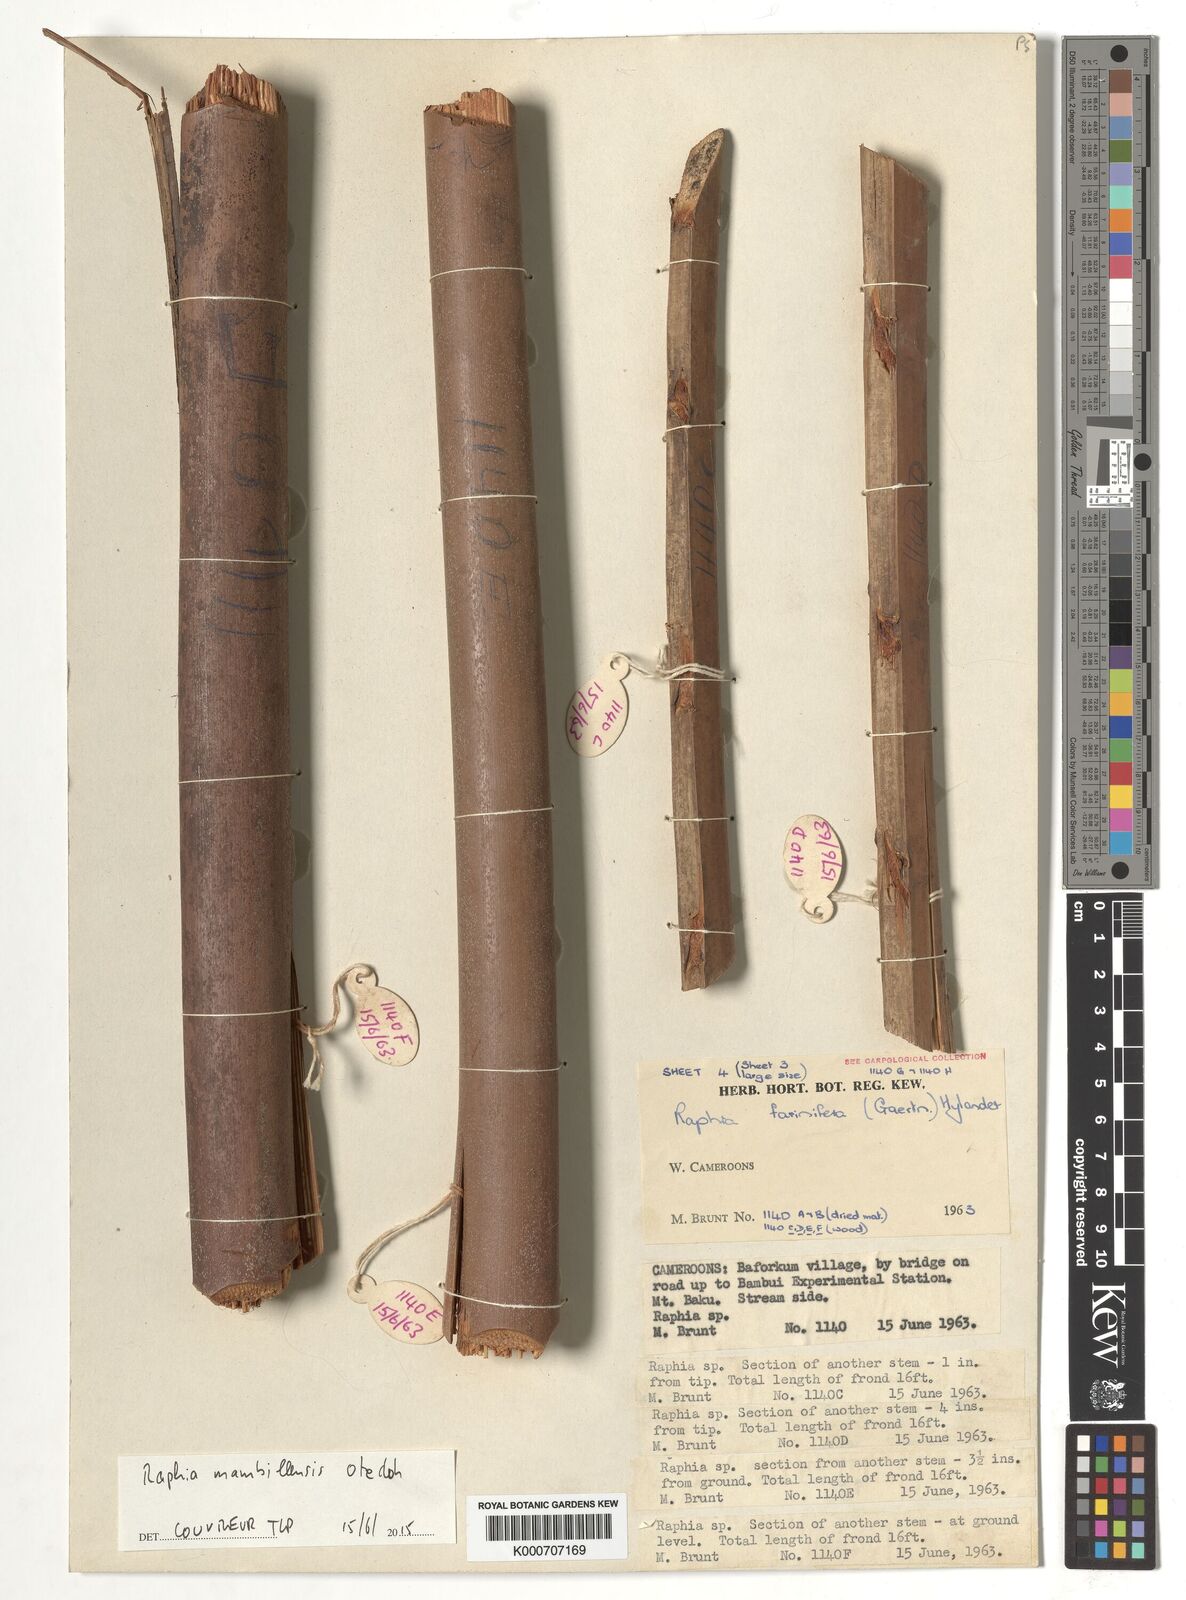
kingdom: Plantae
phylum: Tracheophyta
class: Liliopsida
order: Arecales
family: Arecaceae
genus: Raphia
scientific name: Raphia farinifera
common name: Raphia palm
